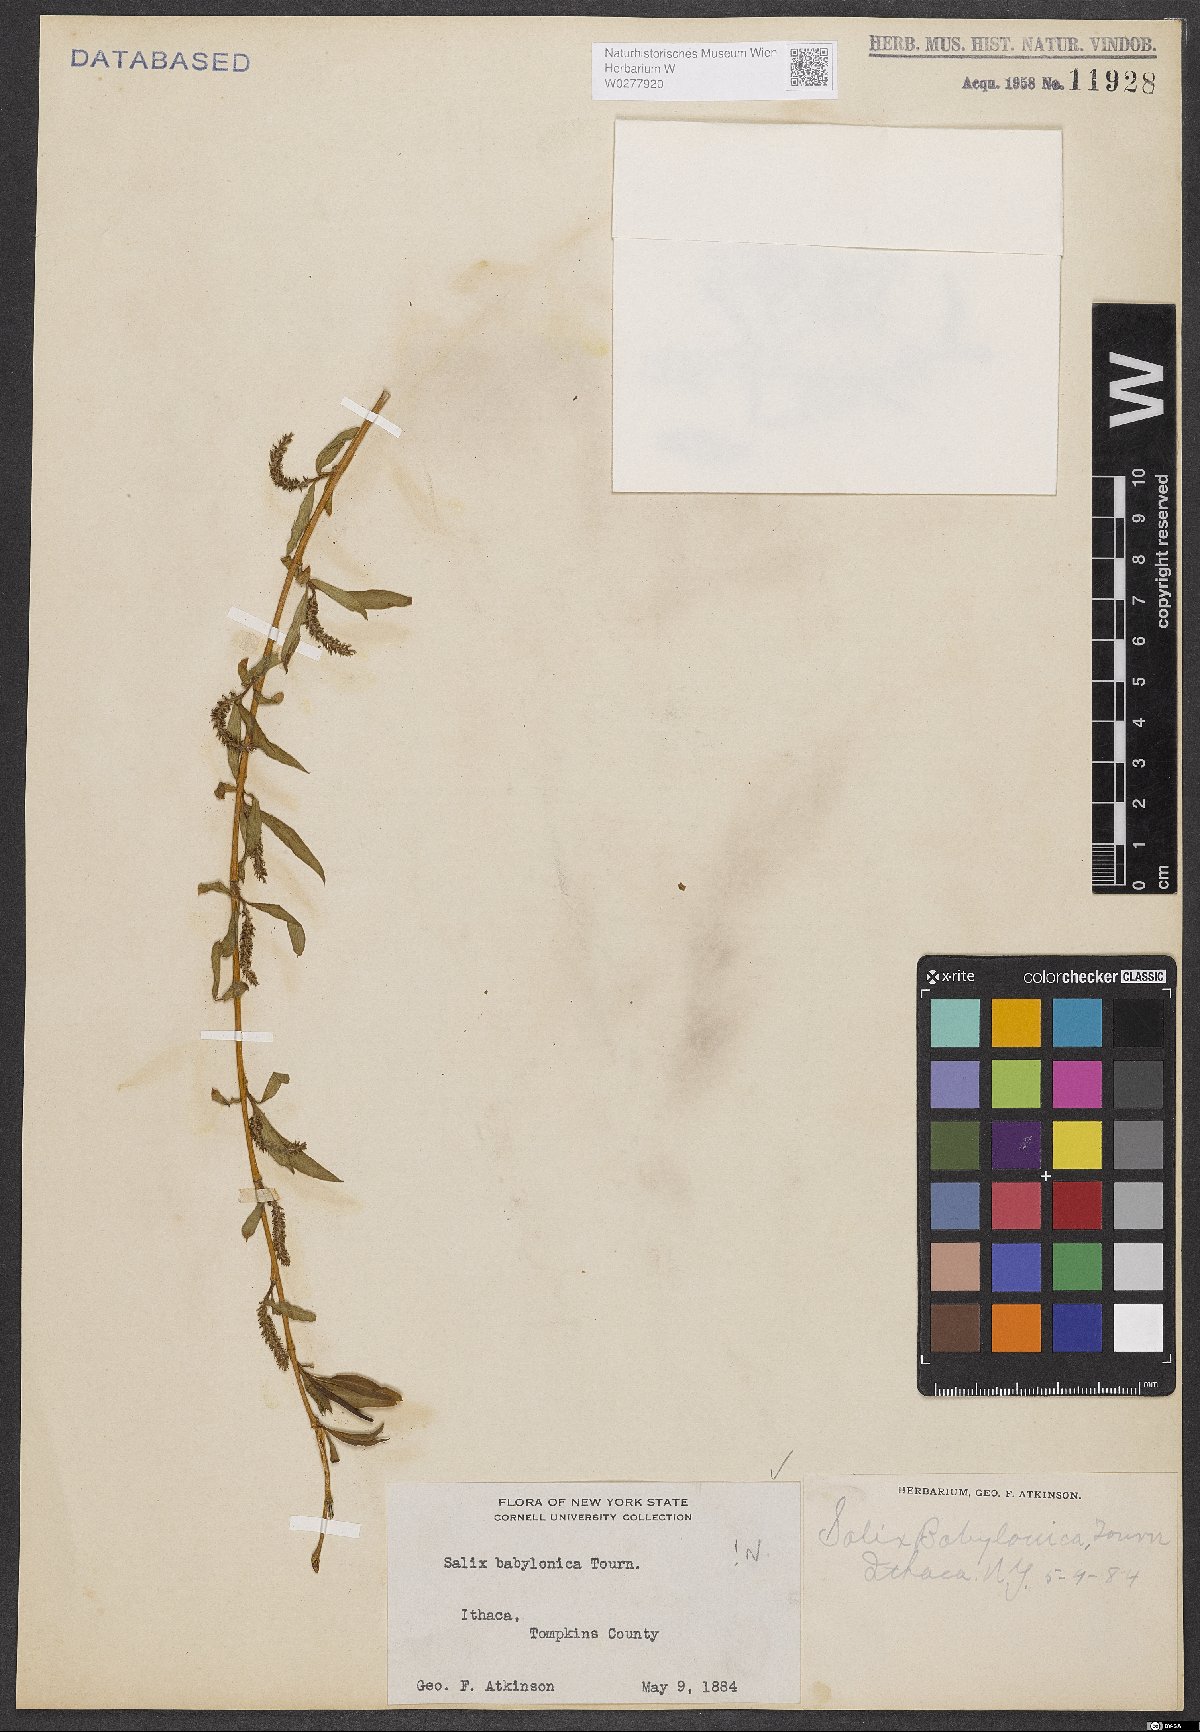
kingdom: Plantae
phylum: Tracheophyta
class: Magnoliopsida
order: Malpighiales
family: Salicaceae
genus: Salix
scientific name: Salix babylonica
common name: Weeping willow
